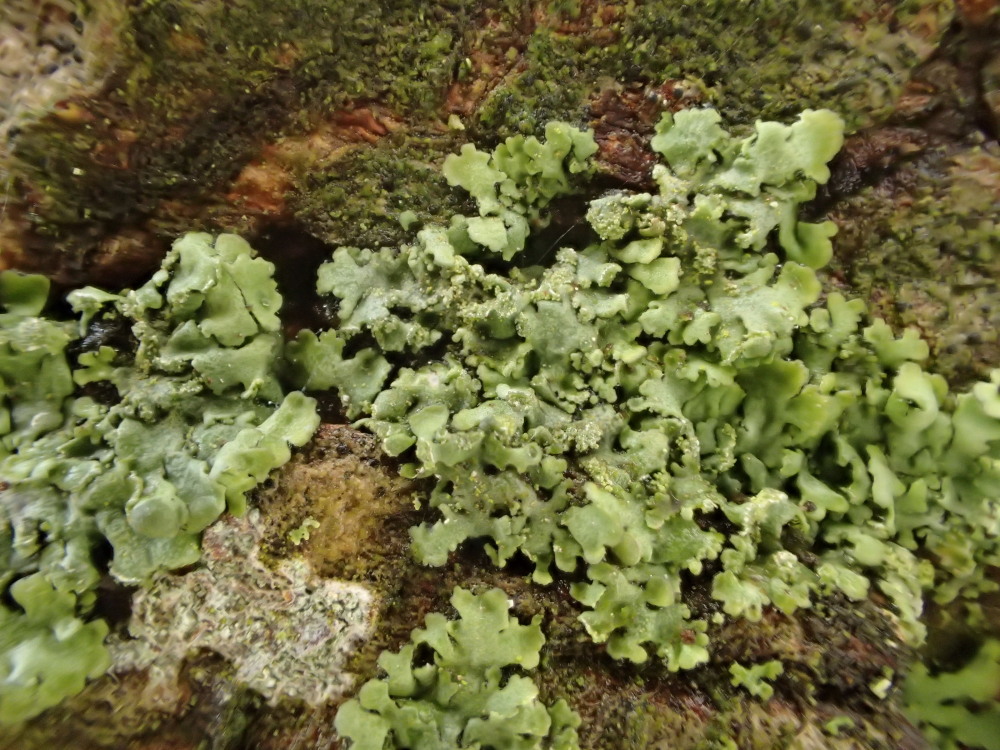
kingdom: Fungi
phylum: Ascomycota
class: Lecanoromycetes
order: Caliciales
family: Physciaceae
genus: Phaeophyscia
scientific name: Phaeophyscia orbicularis
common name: grågrøn rosetlav
